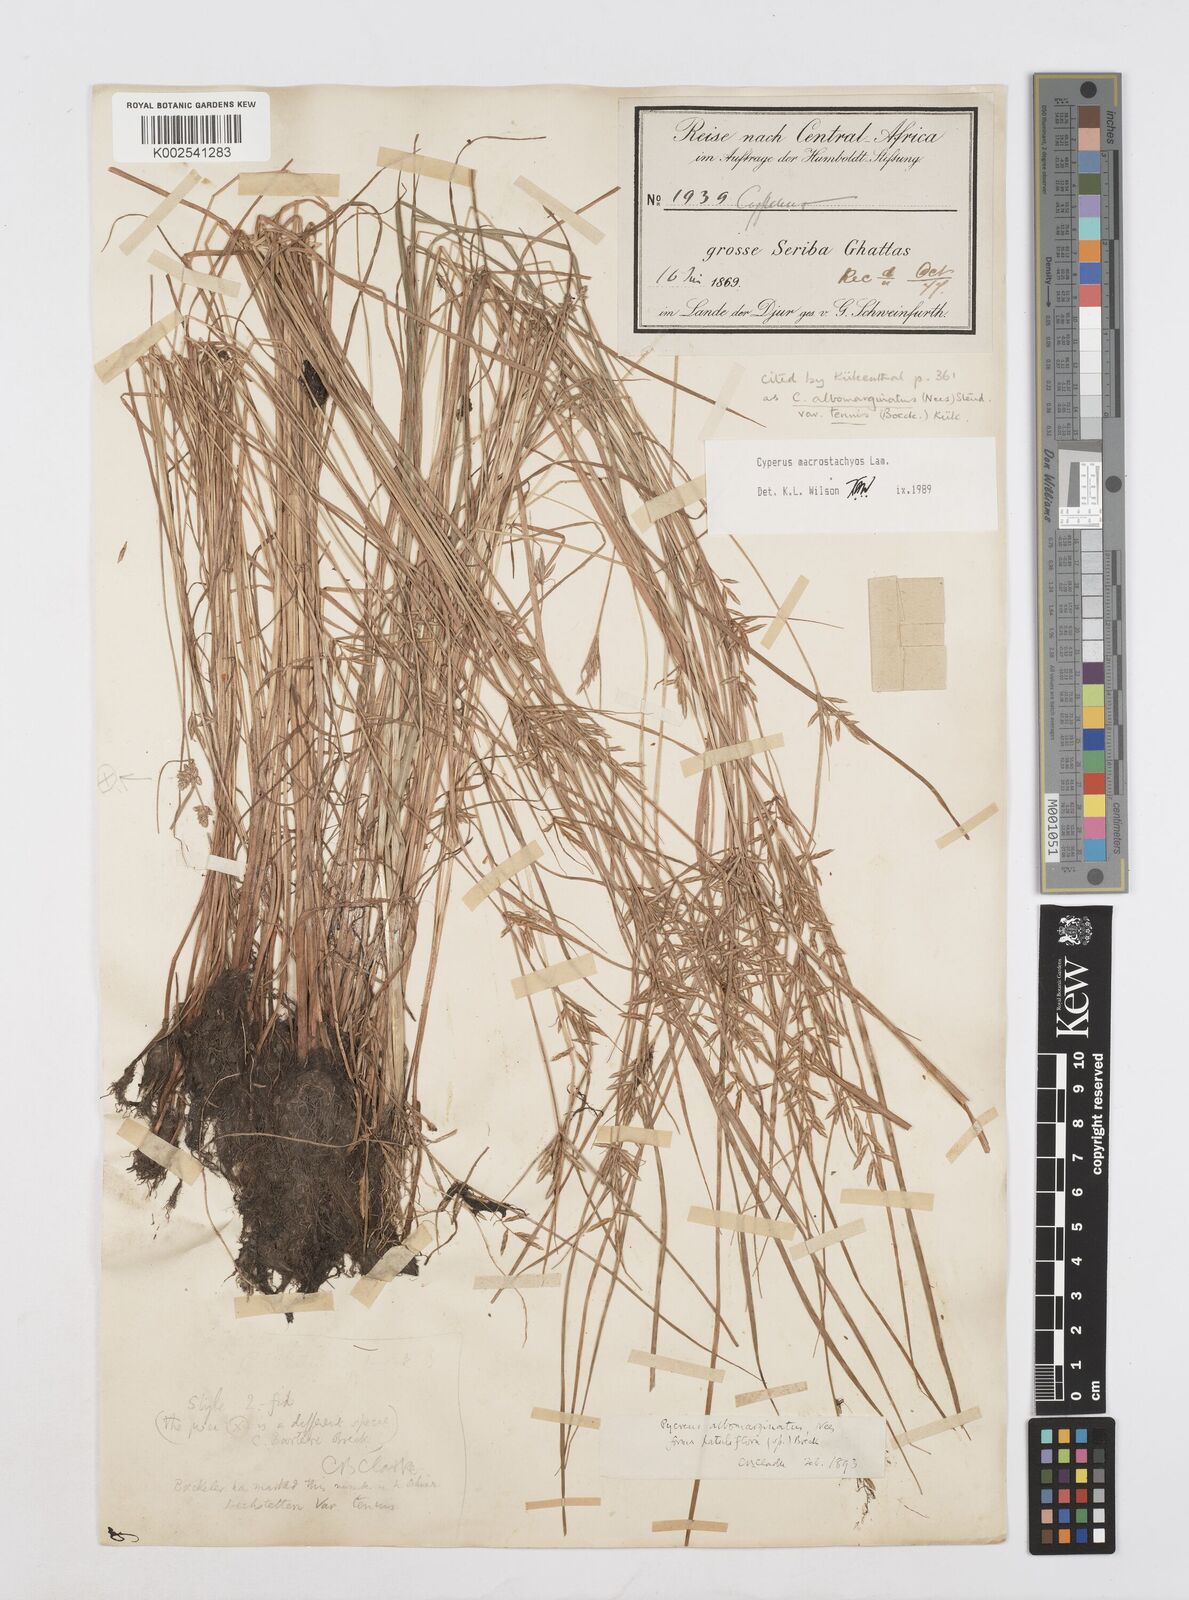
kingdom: Plantae
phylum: Tracheophyta
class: Liliopsida
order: Poales
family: Cyperaceae
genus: Cyperus
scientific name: Cyperus macrostachyos
